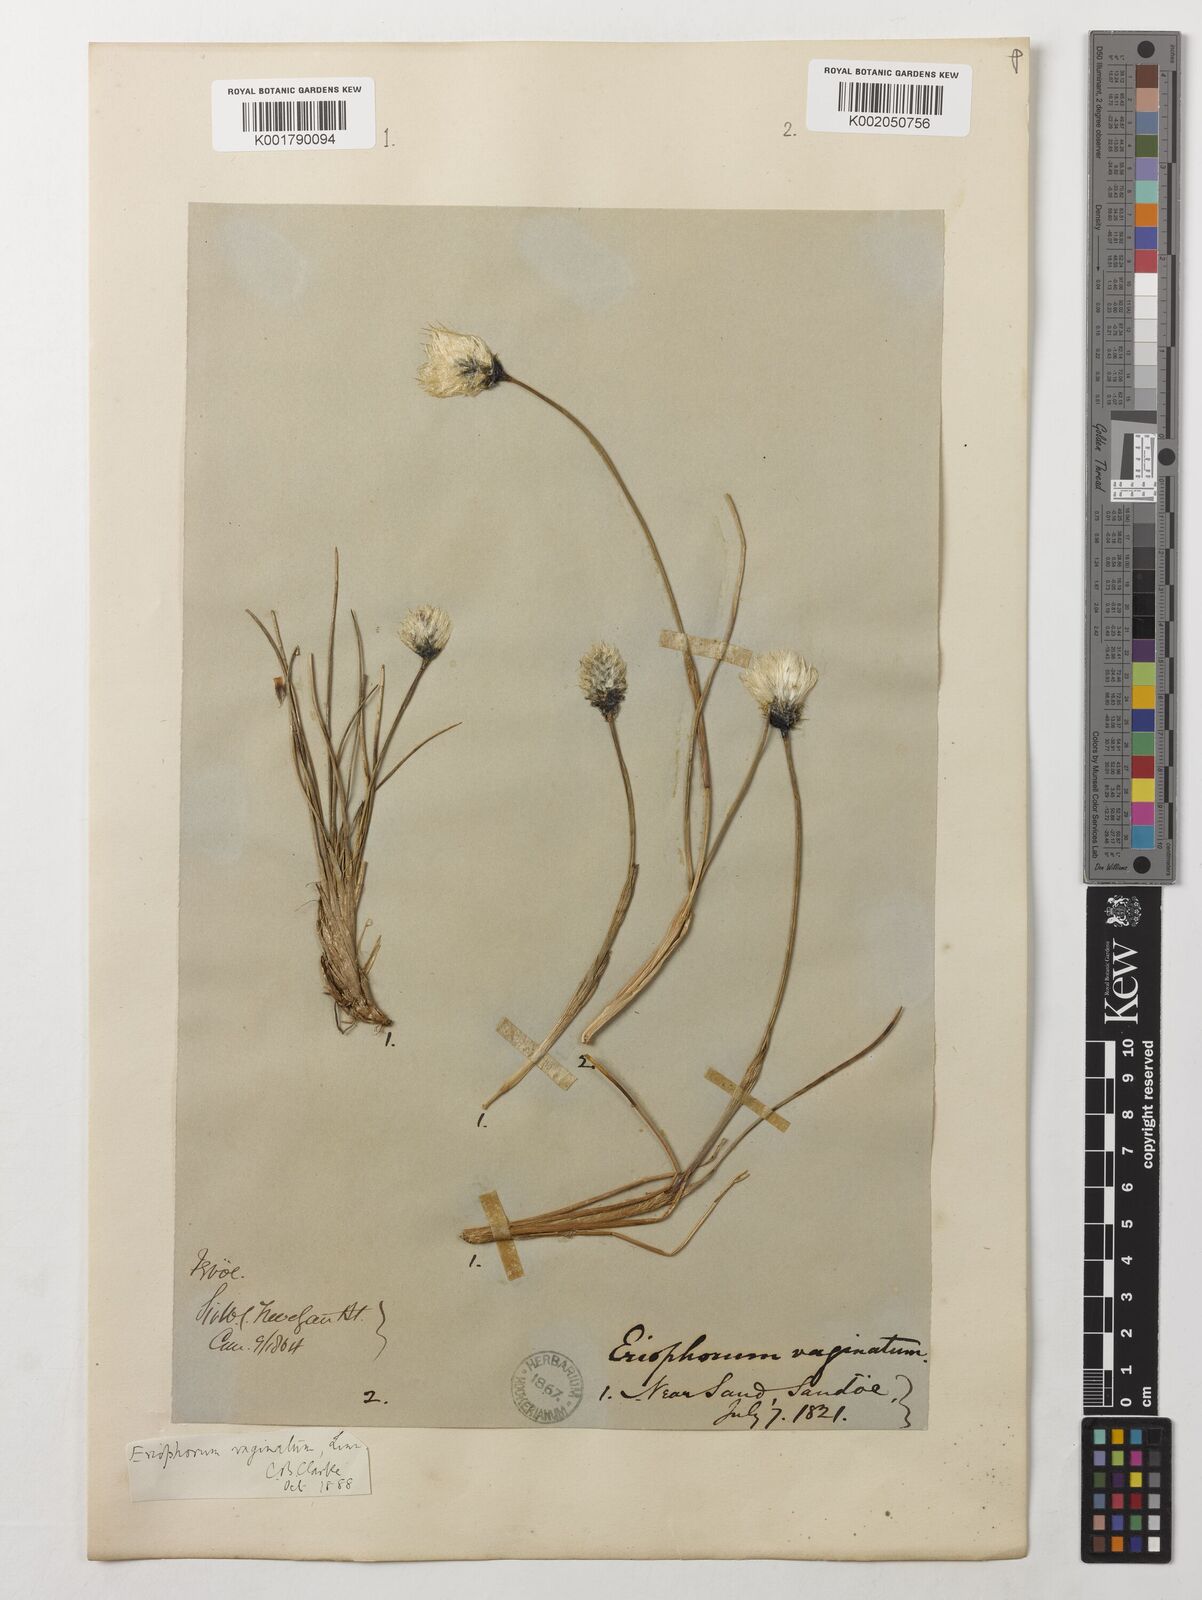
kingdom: Plantae
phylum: Tracheophyta
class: Liliopsida
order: Poales
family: Cyperaceae
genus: Eriophorum
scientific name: Eriophorum vaginatum
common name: Hare's-tail cottongrass
